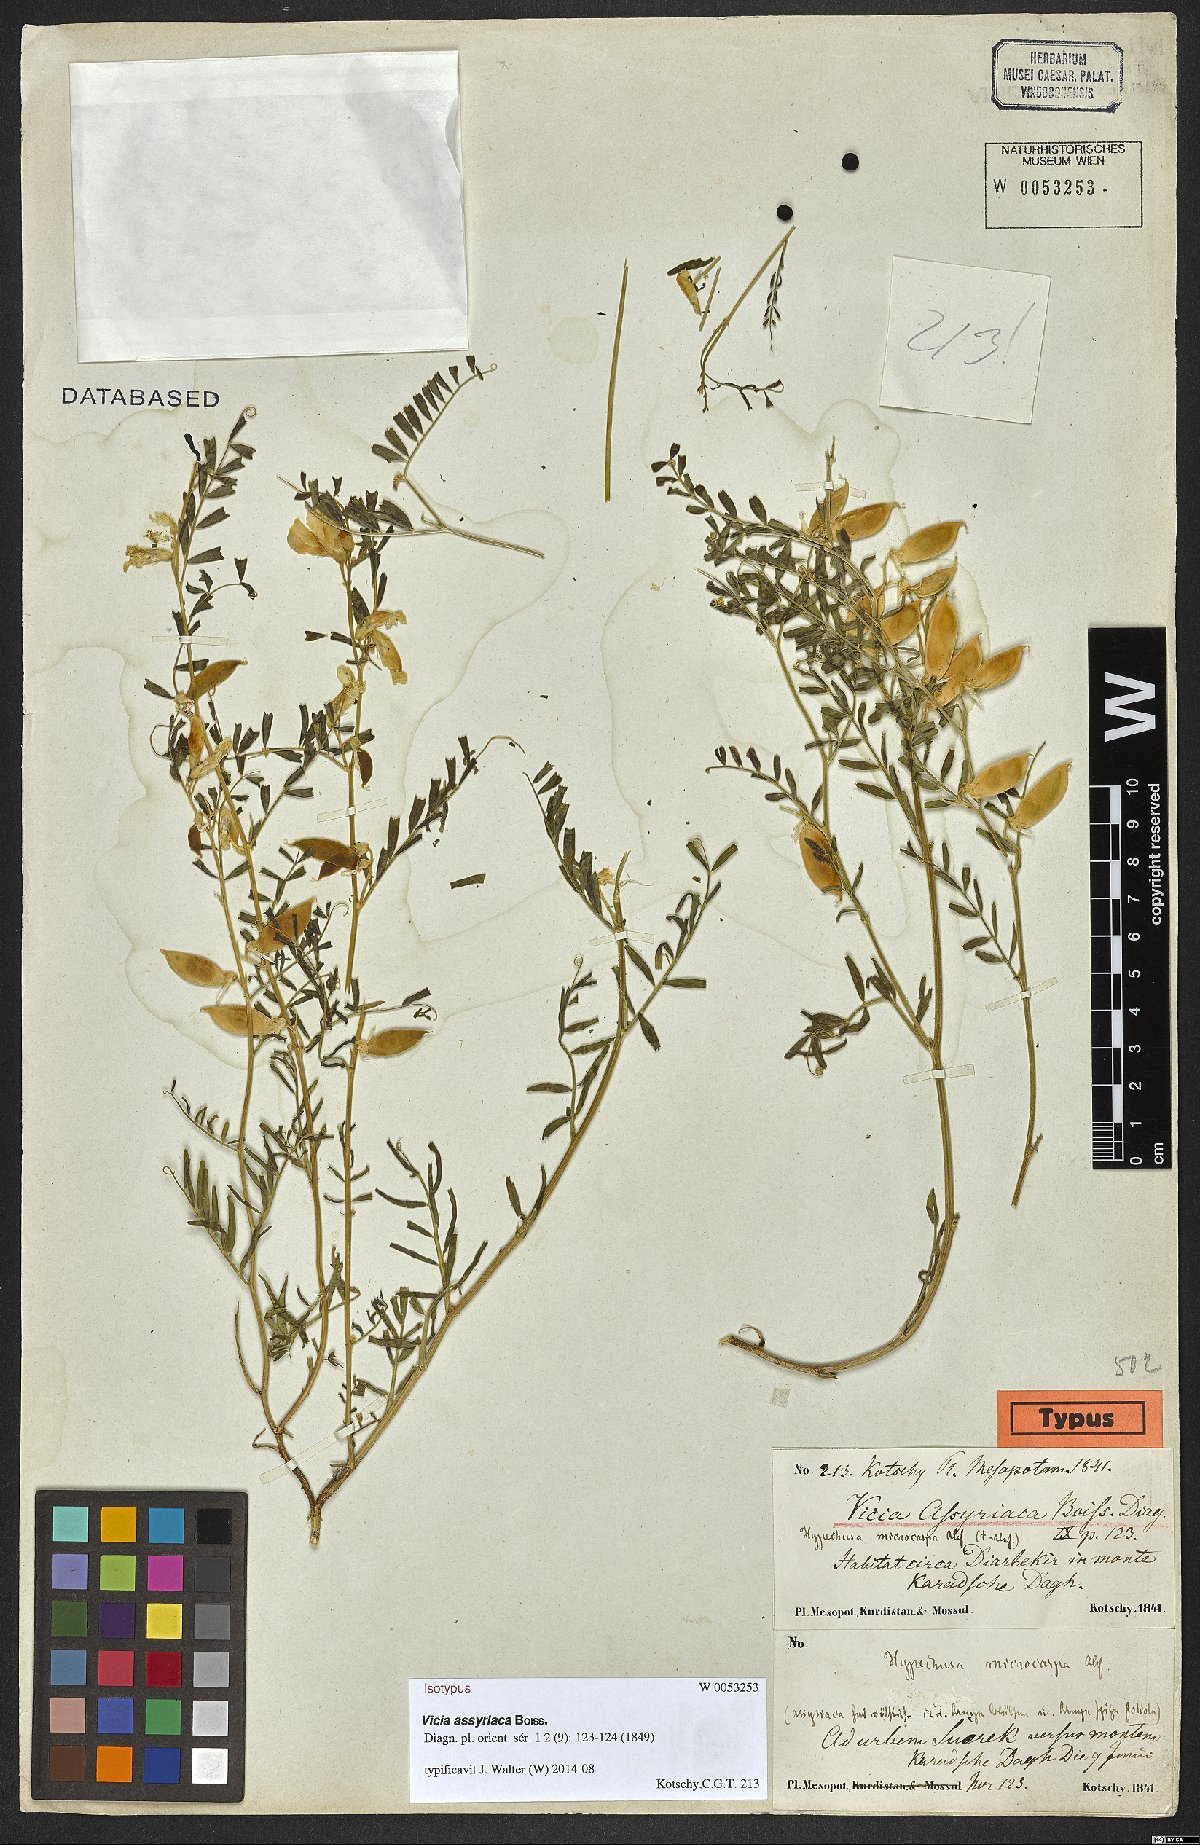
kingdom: Plantae
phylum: Tracheophyta
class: Magnoliopsida
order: Fabales
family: Fabaceae
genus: Vicia
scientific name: Vicia assyriaca
